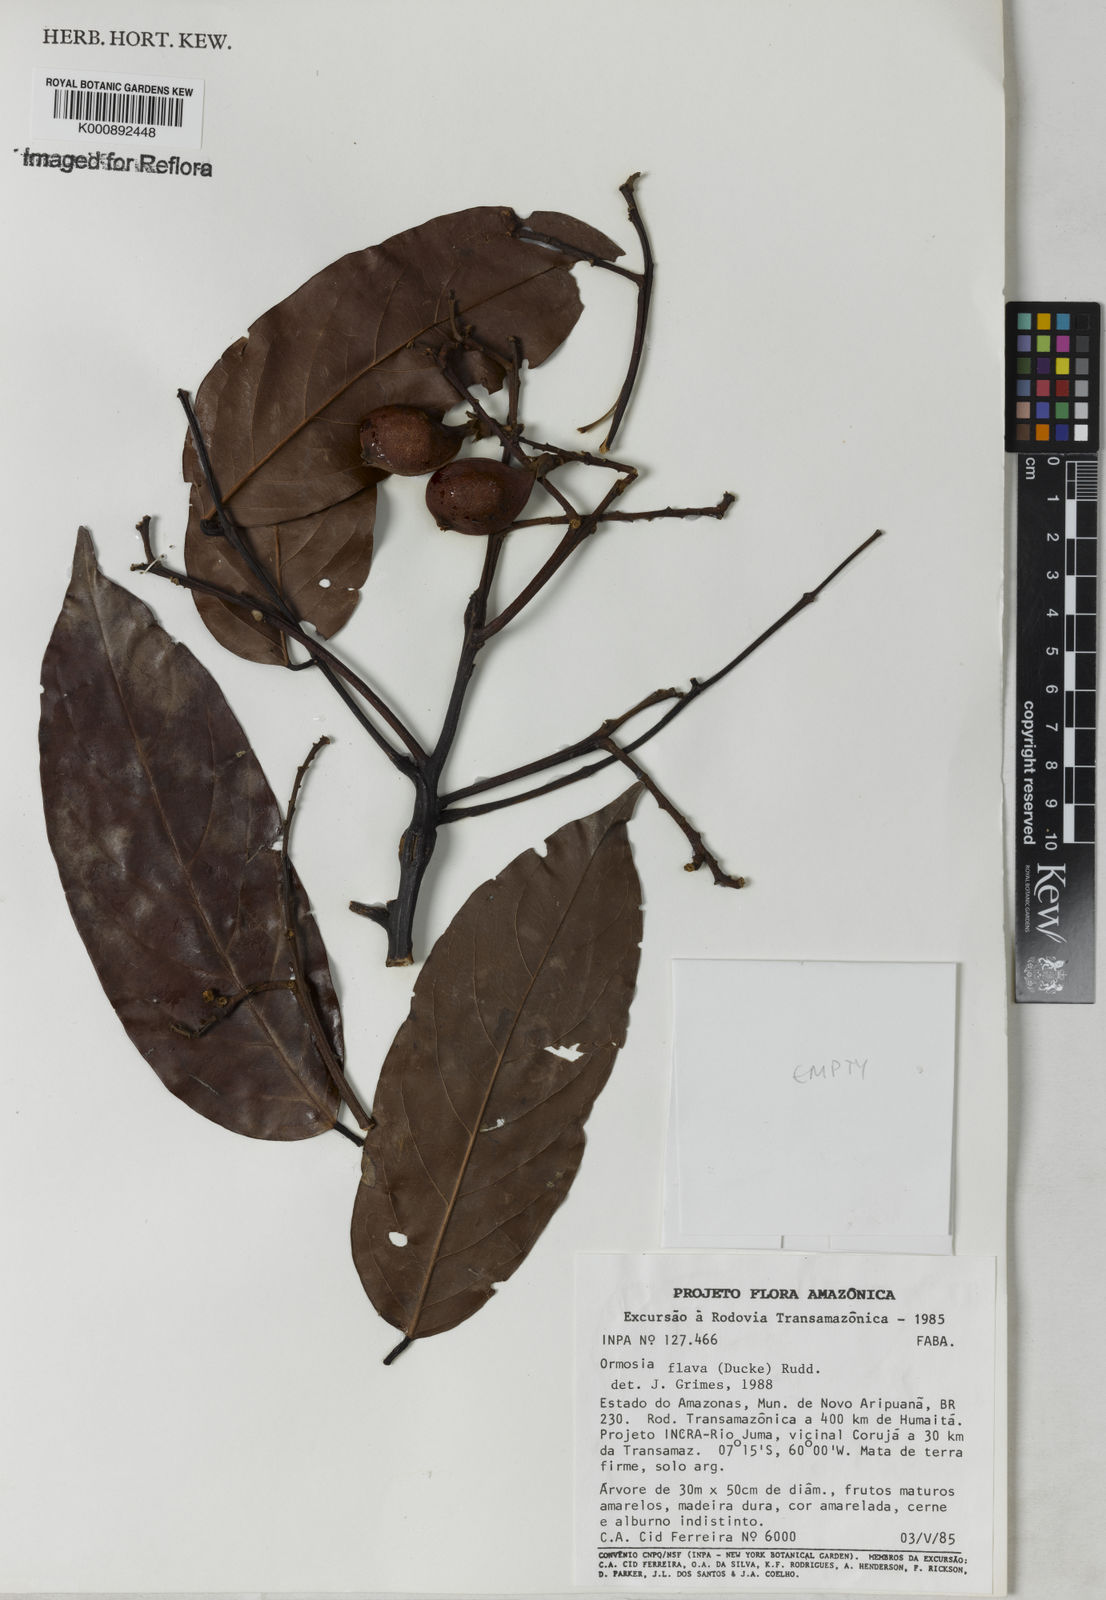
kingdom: Plantae
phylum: Tracheophyta
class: Magnoliopsida
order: Fabales
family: Fabaceae
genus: Ormosia
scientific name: Ormosia flava
